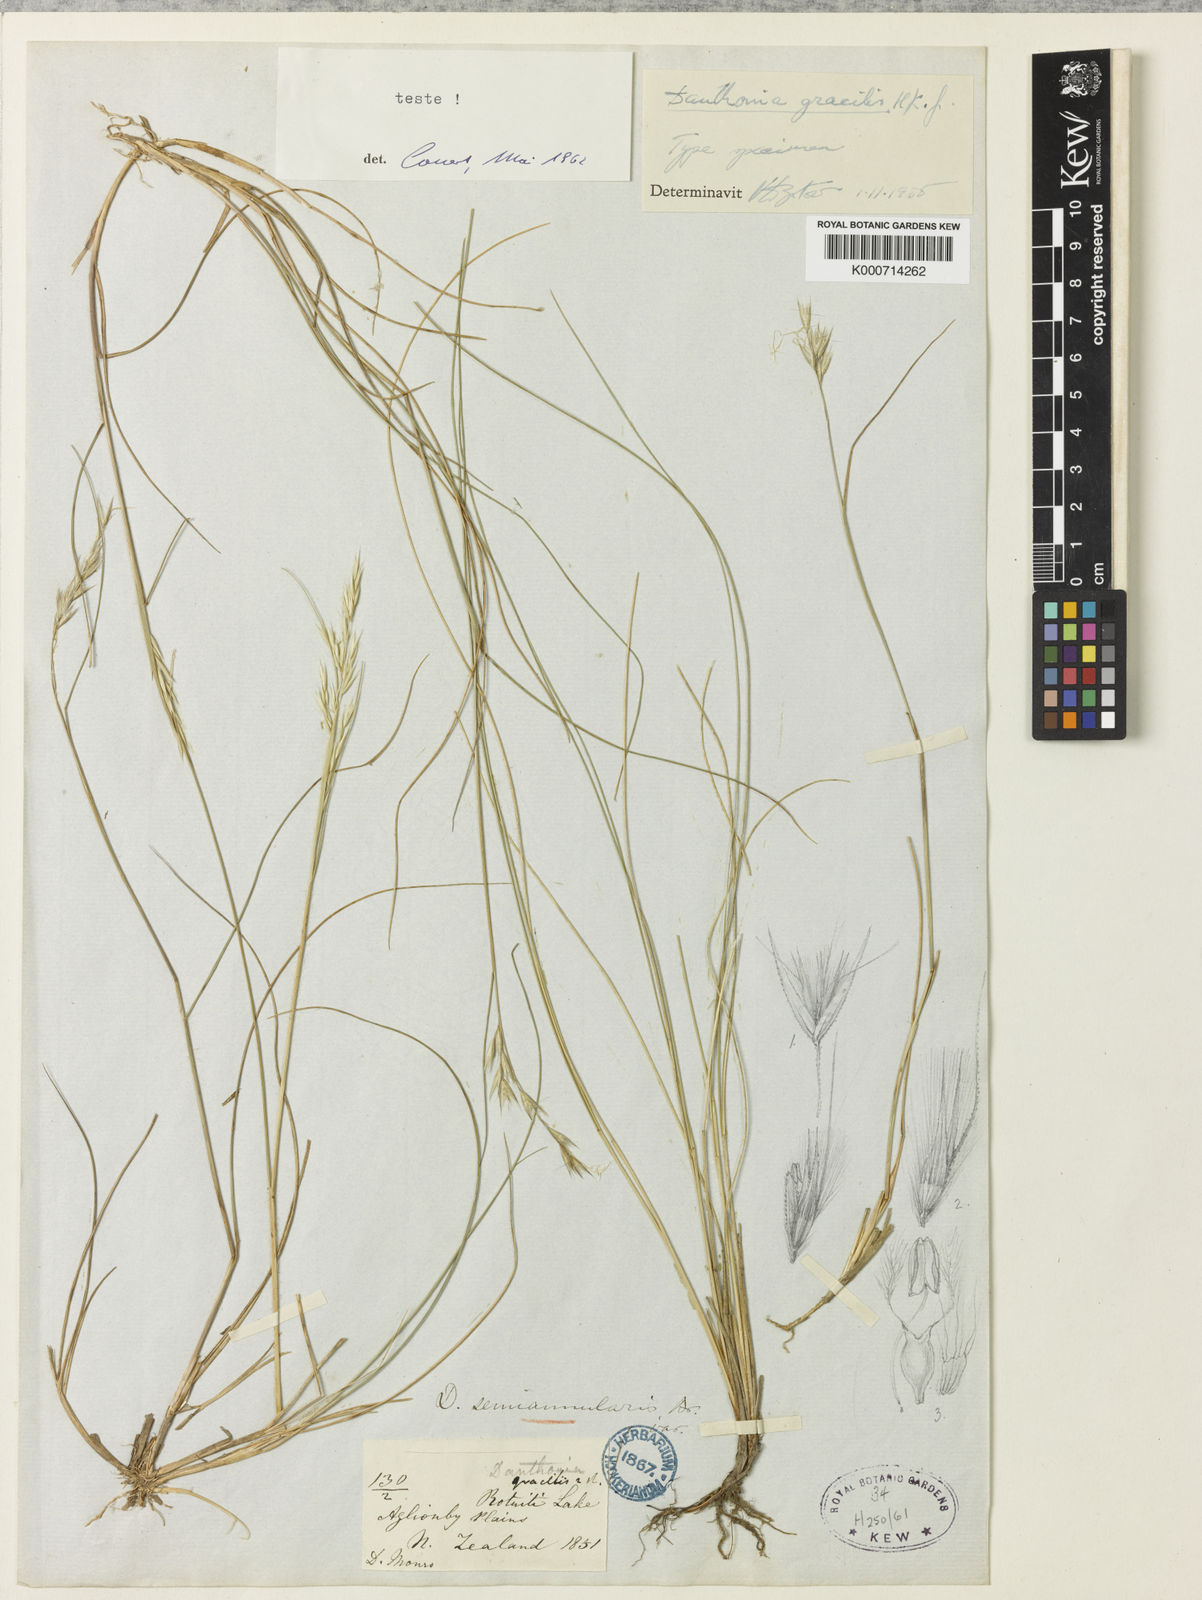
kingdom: Plantae
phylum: Tracheophyta
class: Liliopsida
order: Poales
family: Poaceae
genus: Rytidosperma
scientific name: Rytidosperma gracile
